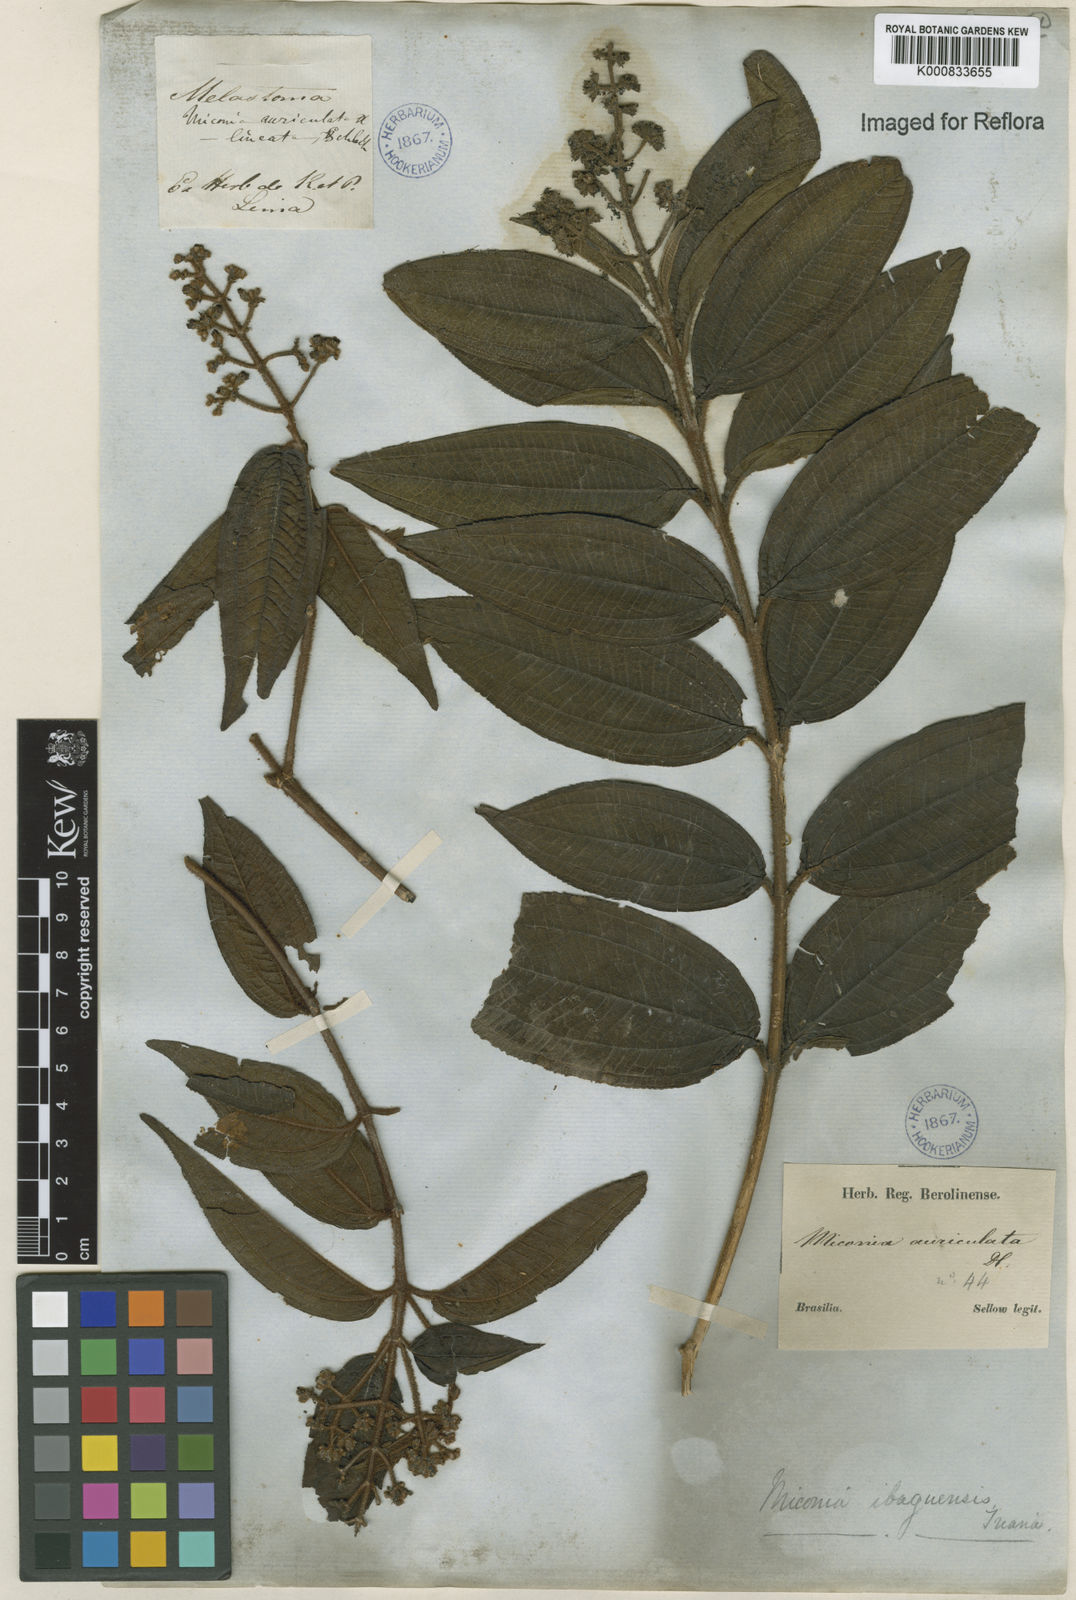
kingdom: Plantae
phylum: Tracheophyta
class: Magnoliopsida
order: Myrtales
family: Melastomataceae
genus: Miconia
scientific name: Miconia ibaguensis
